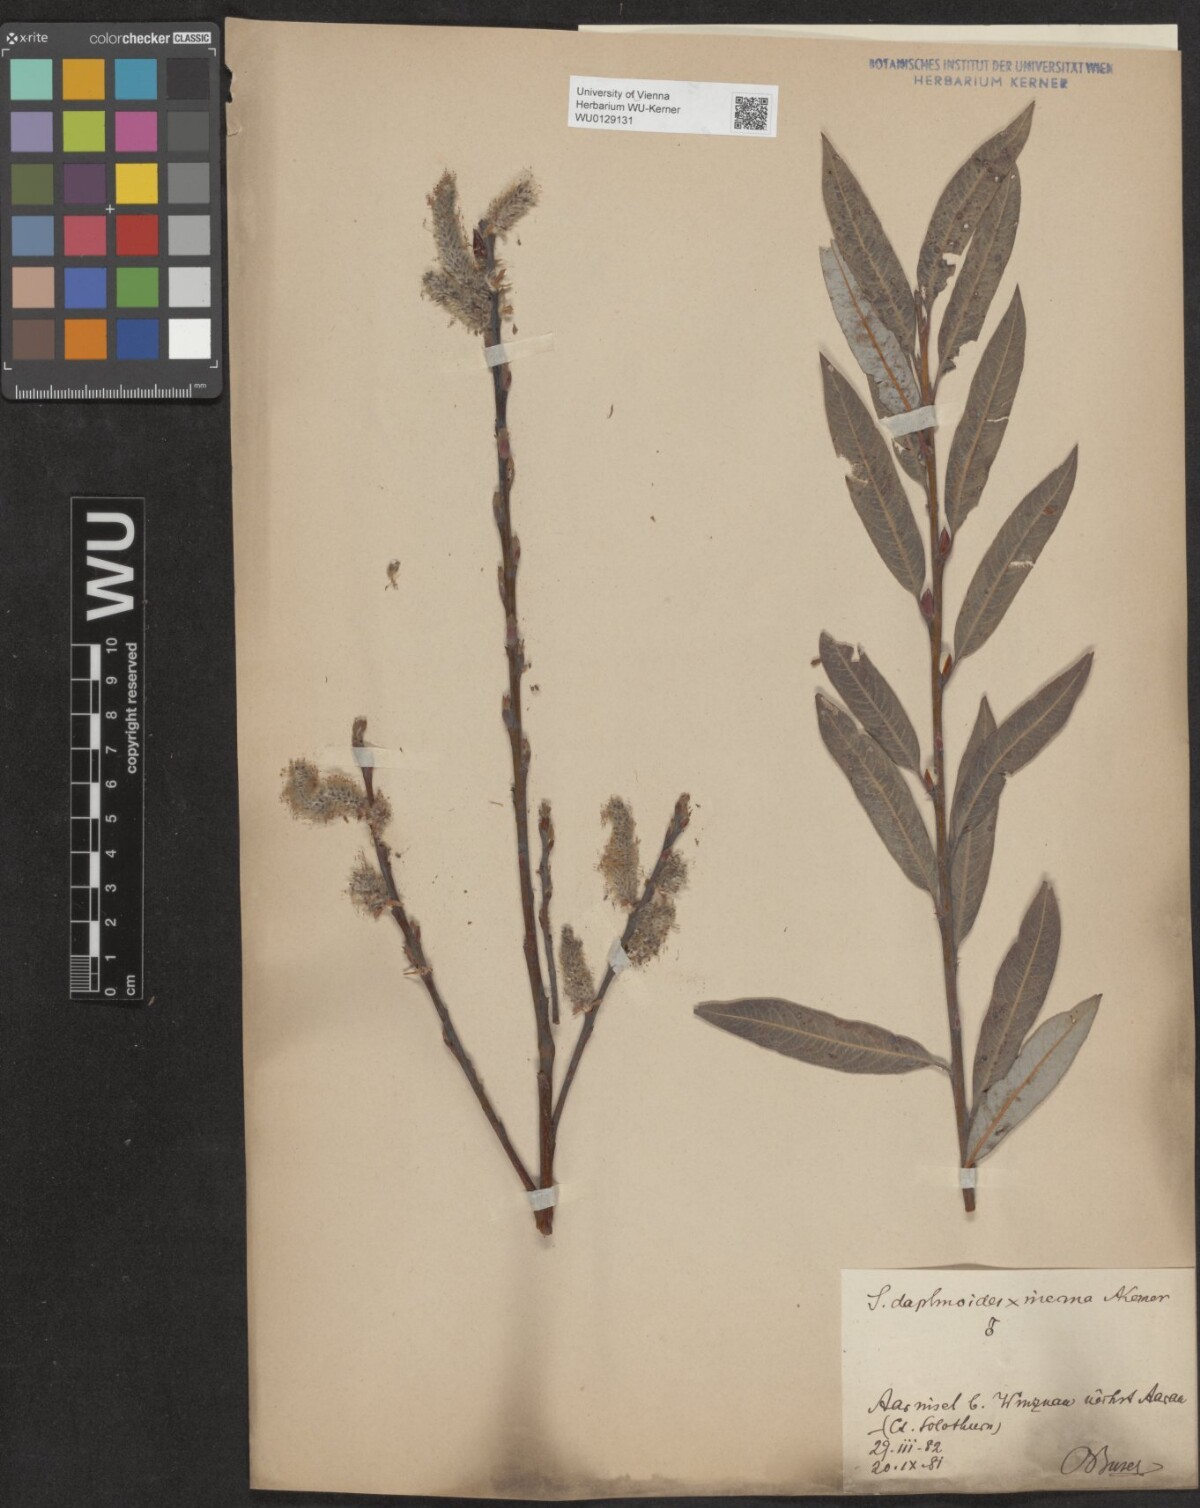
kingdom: Plantae
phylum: Tracheophyta
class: Magnoliopsida
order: Malpighiales
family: Salicaceae
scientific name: Salicaceae
